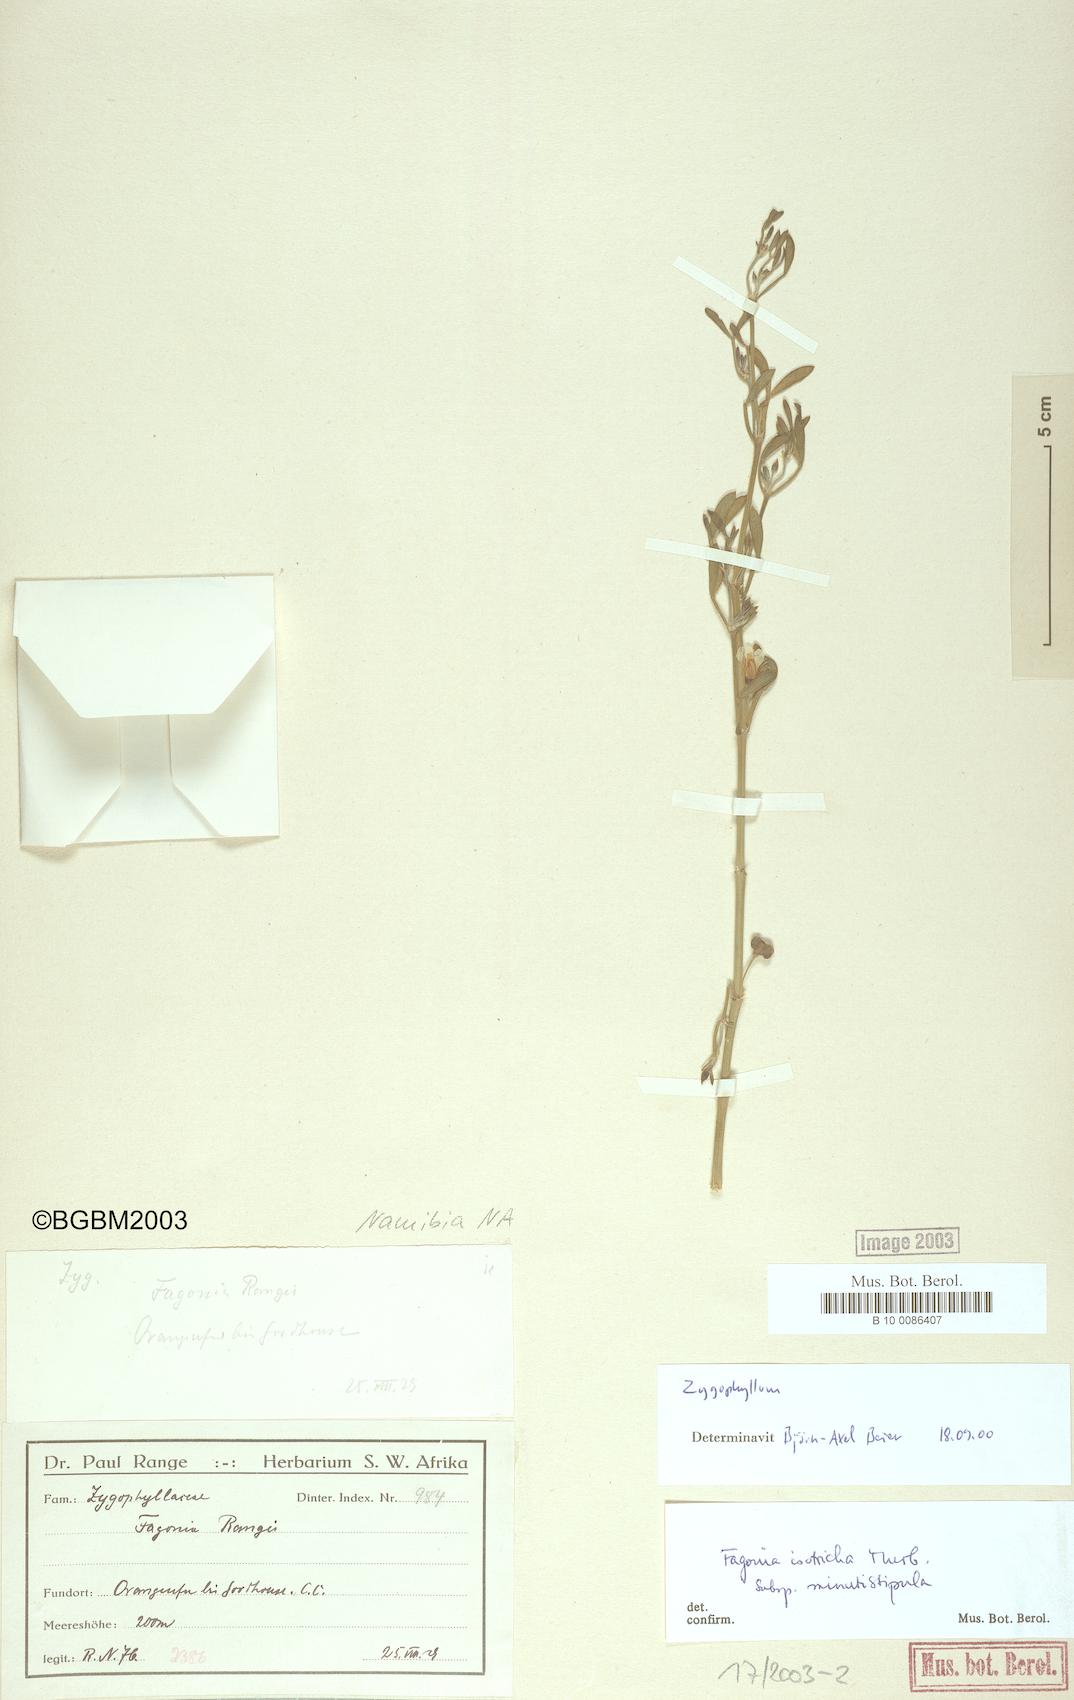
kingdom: Plantae
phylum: Tracheophyta
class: Magnoliopsida
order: Zygophyllales
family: Zygophyllaceae
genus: Zygophyllum
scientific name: Zygophyllum
